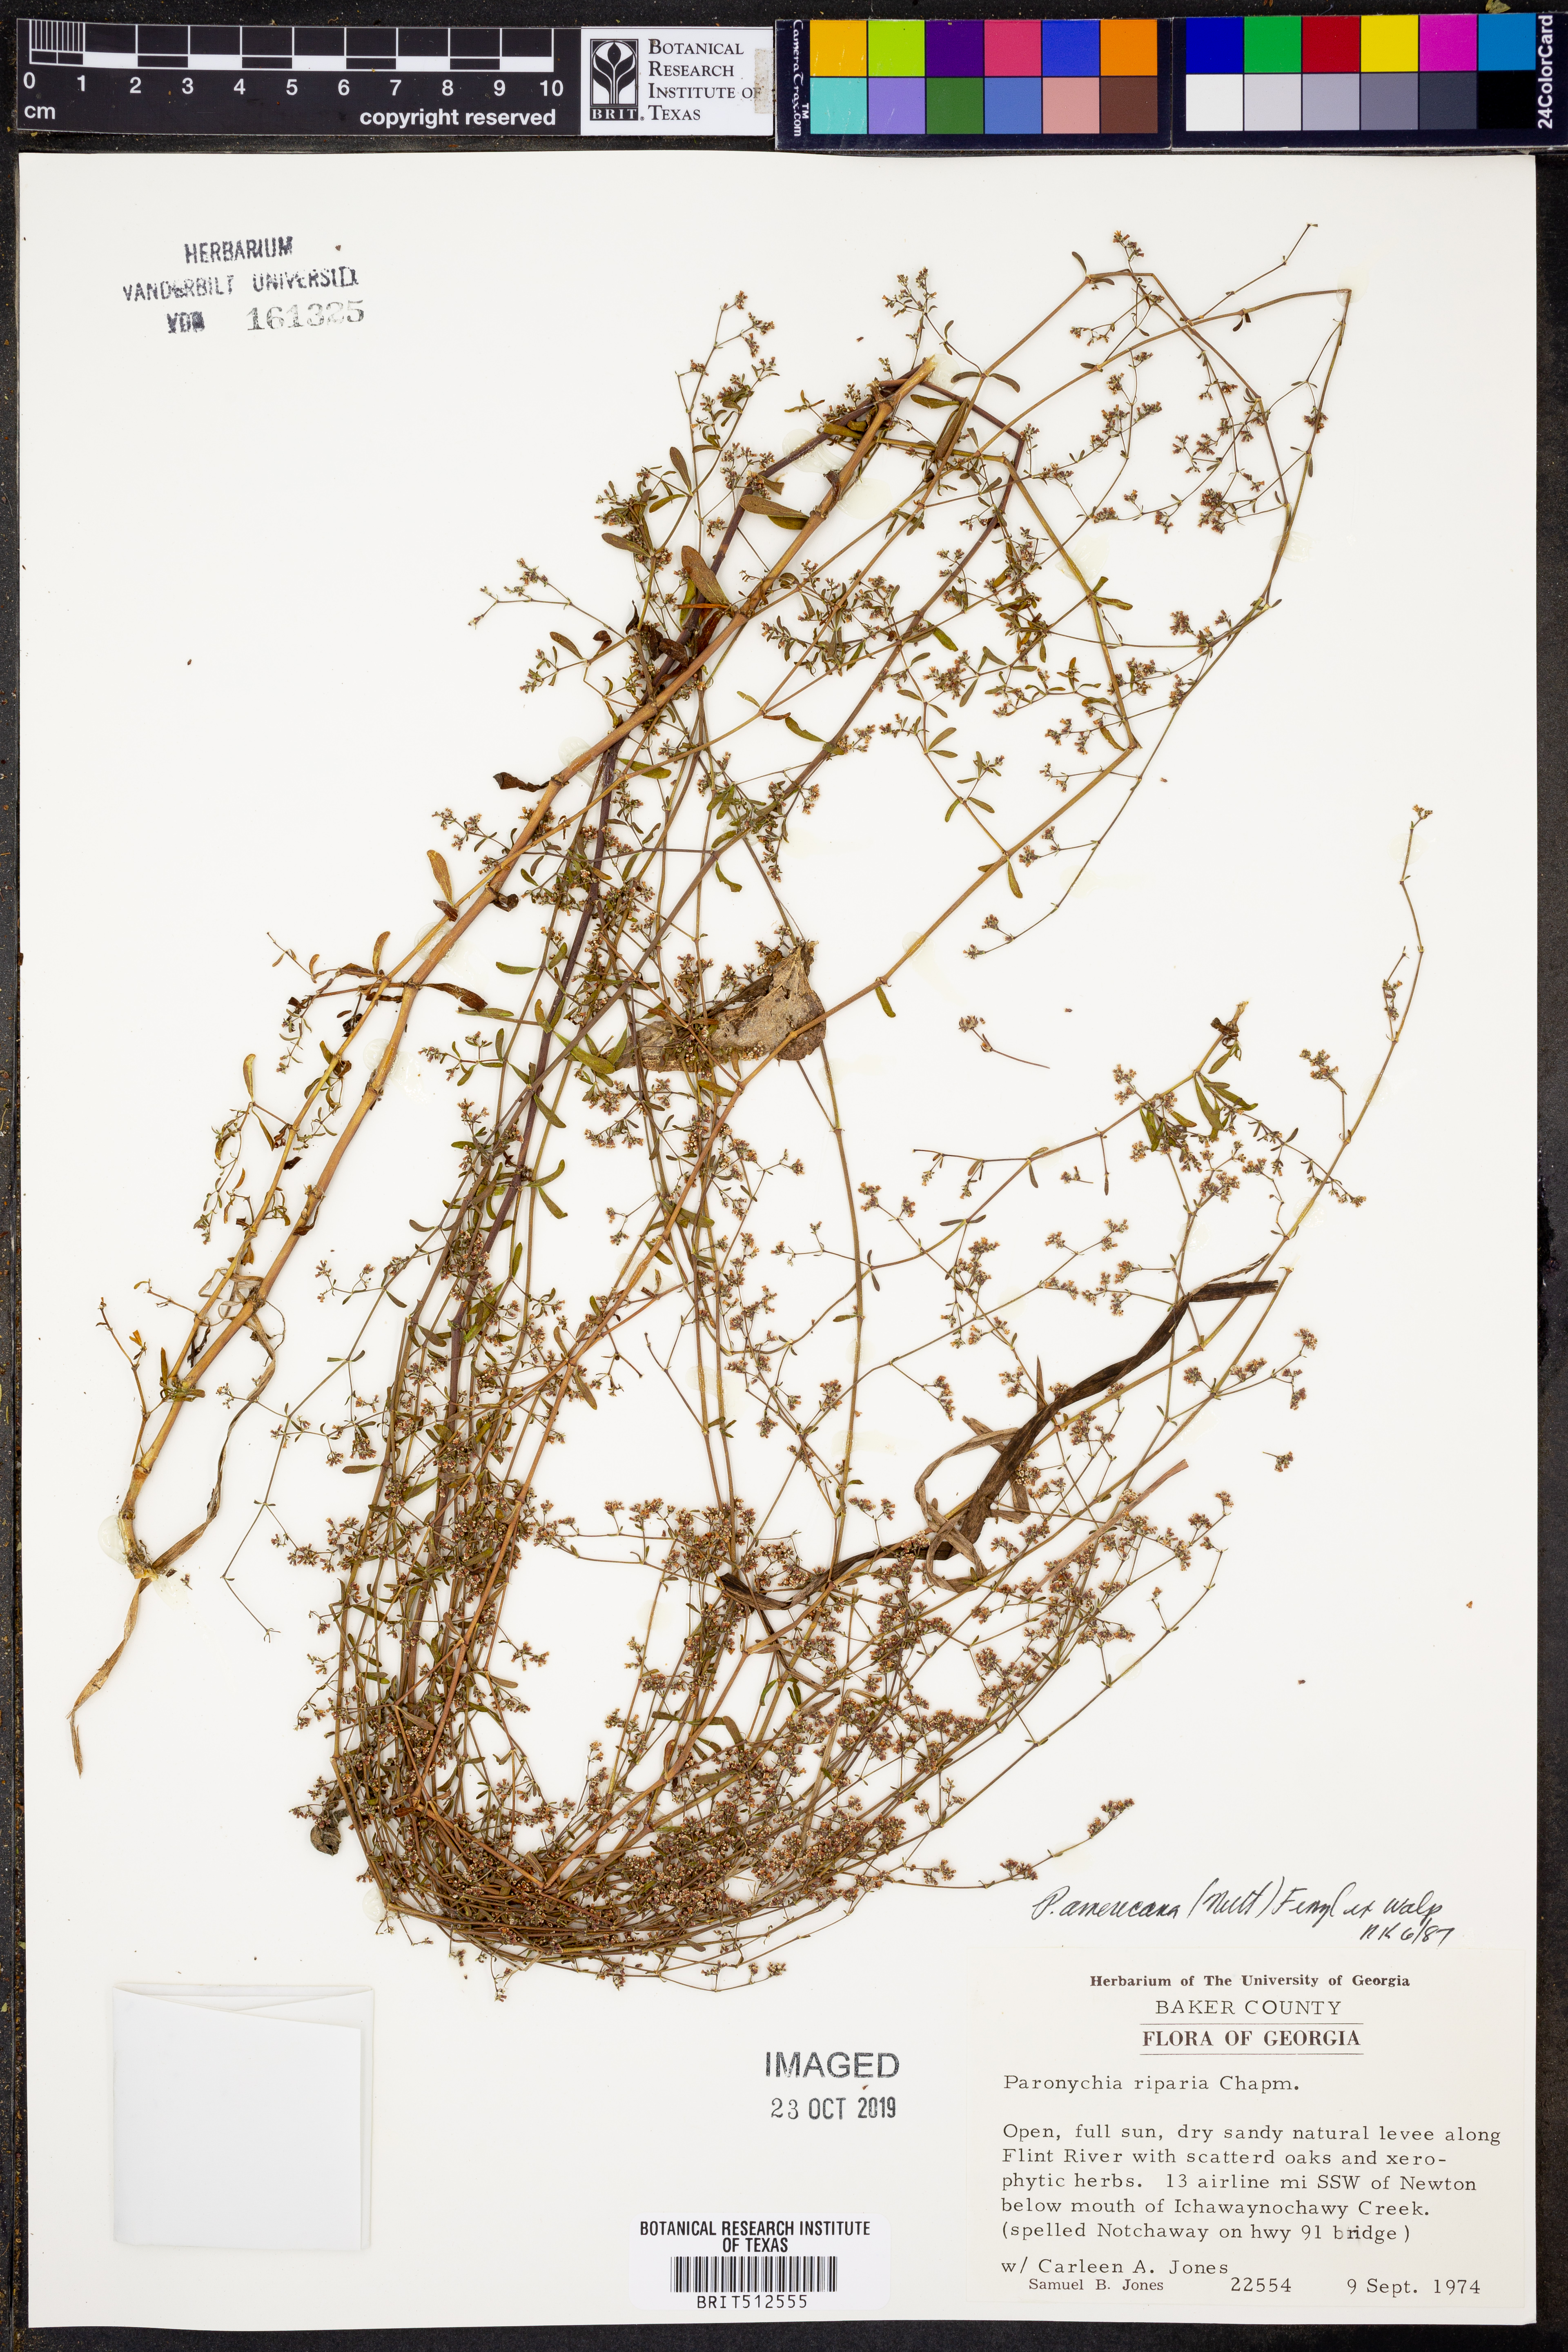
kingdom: Plantae
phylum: Tracheophyta
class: Magnoliopsida
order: Caryophyllales
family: Caryophyllaceae
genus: Paronychia
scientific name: Paronychia baldwinii
